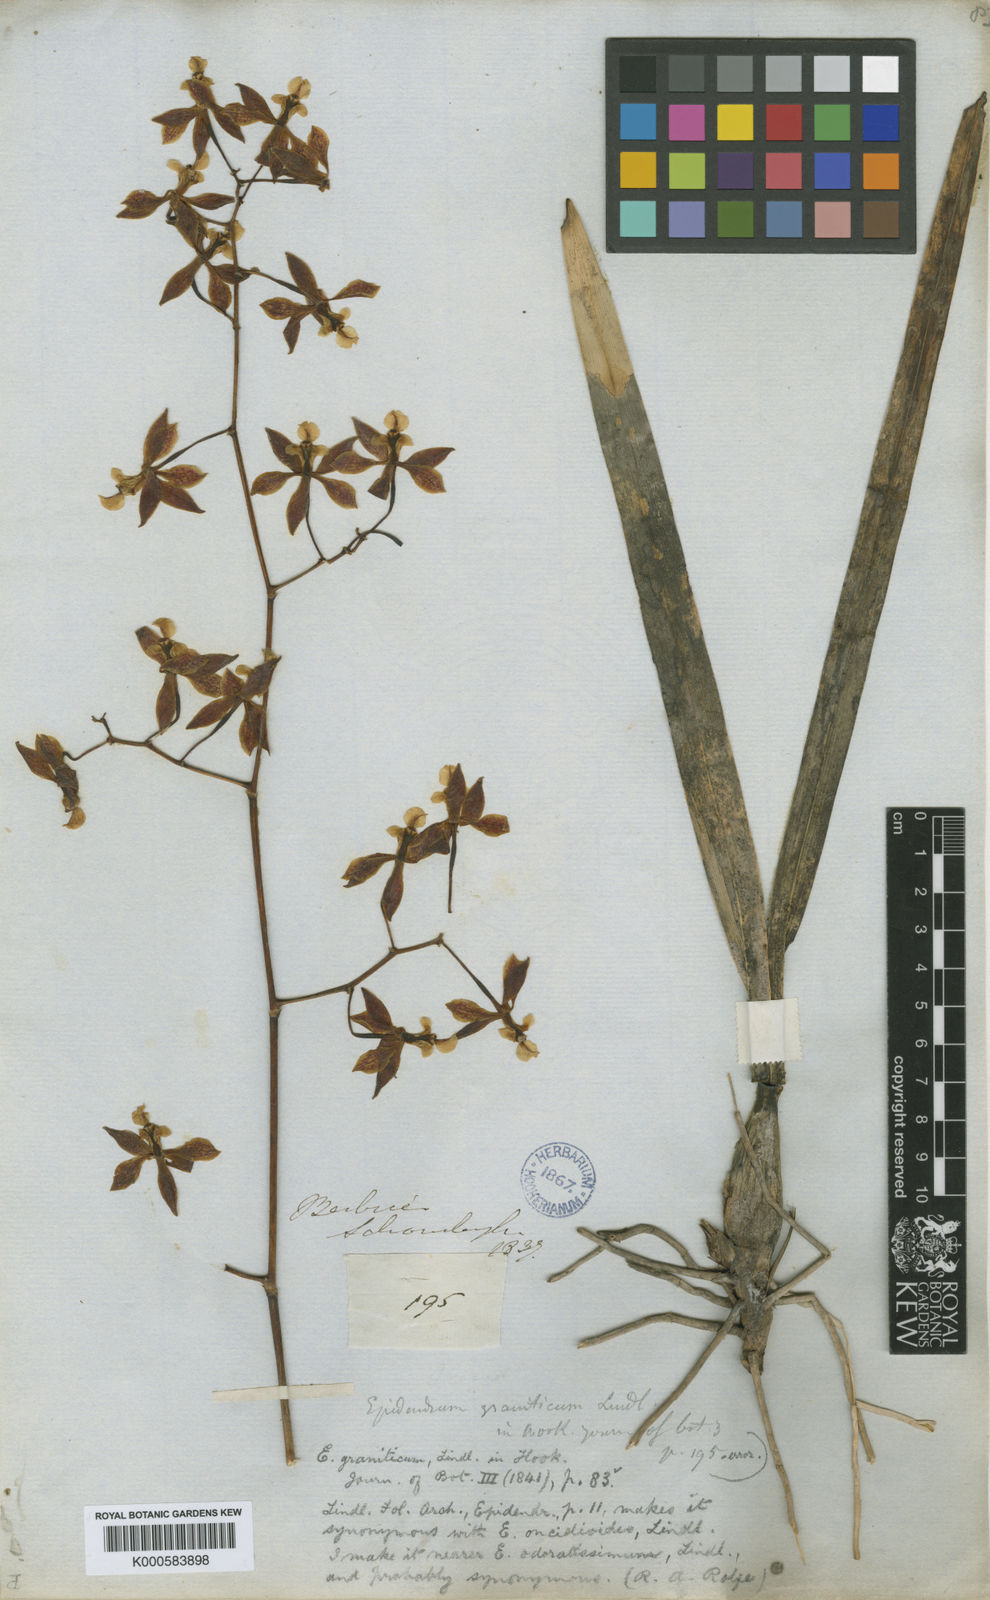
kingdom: Plantae
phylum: Tracheophyta
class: Liliopsida
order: Asparagales
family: Orchidaceae
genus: Encyclia
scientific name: Encyclia oncidioides
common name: Heavyfruit butterfly orchid
